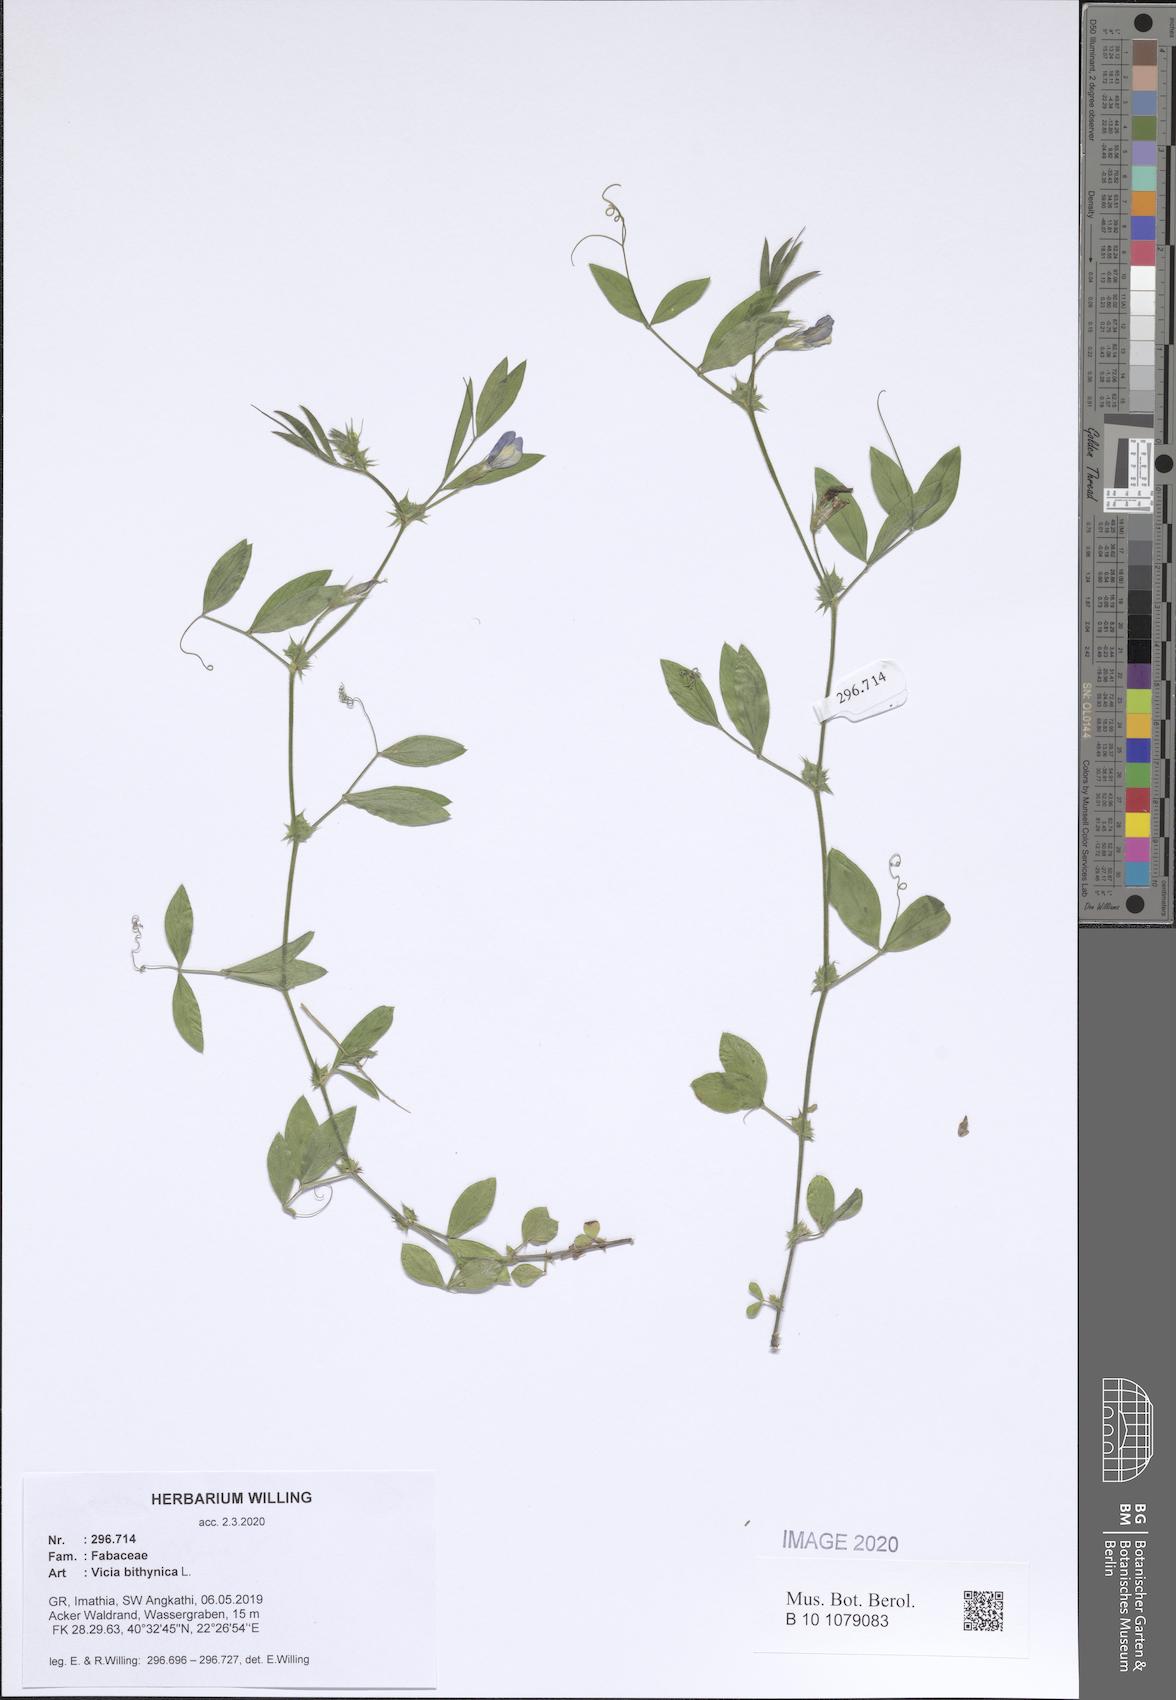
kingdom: Plantae
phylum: Tracheophyta
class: Magnoliopsida
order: Fabales
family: Fabaceae
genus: Vicia
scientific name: Vicia bithynica
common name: Bithynian vetch
